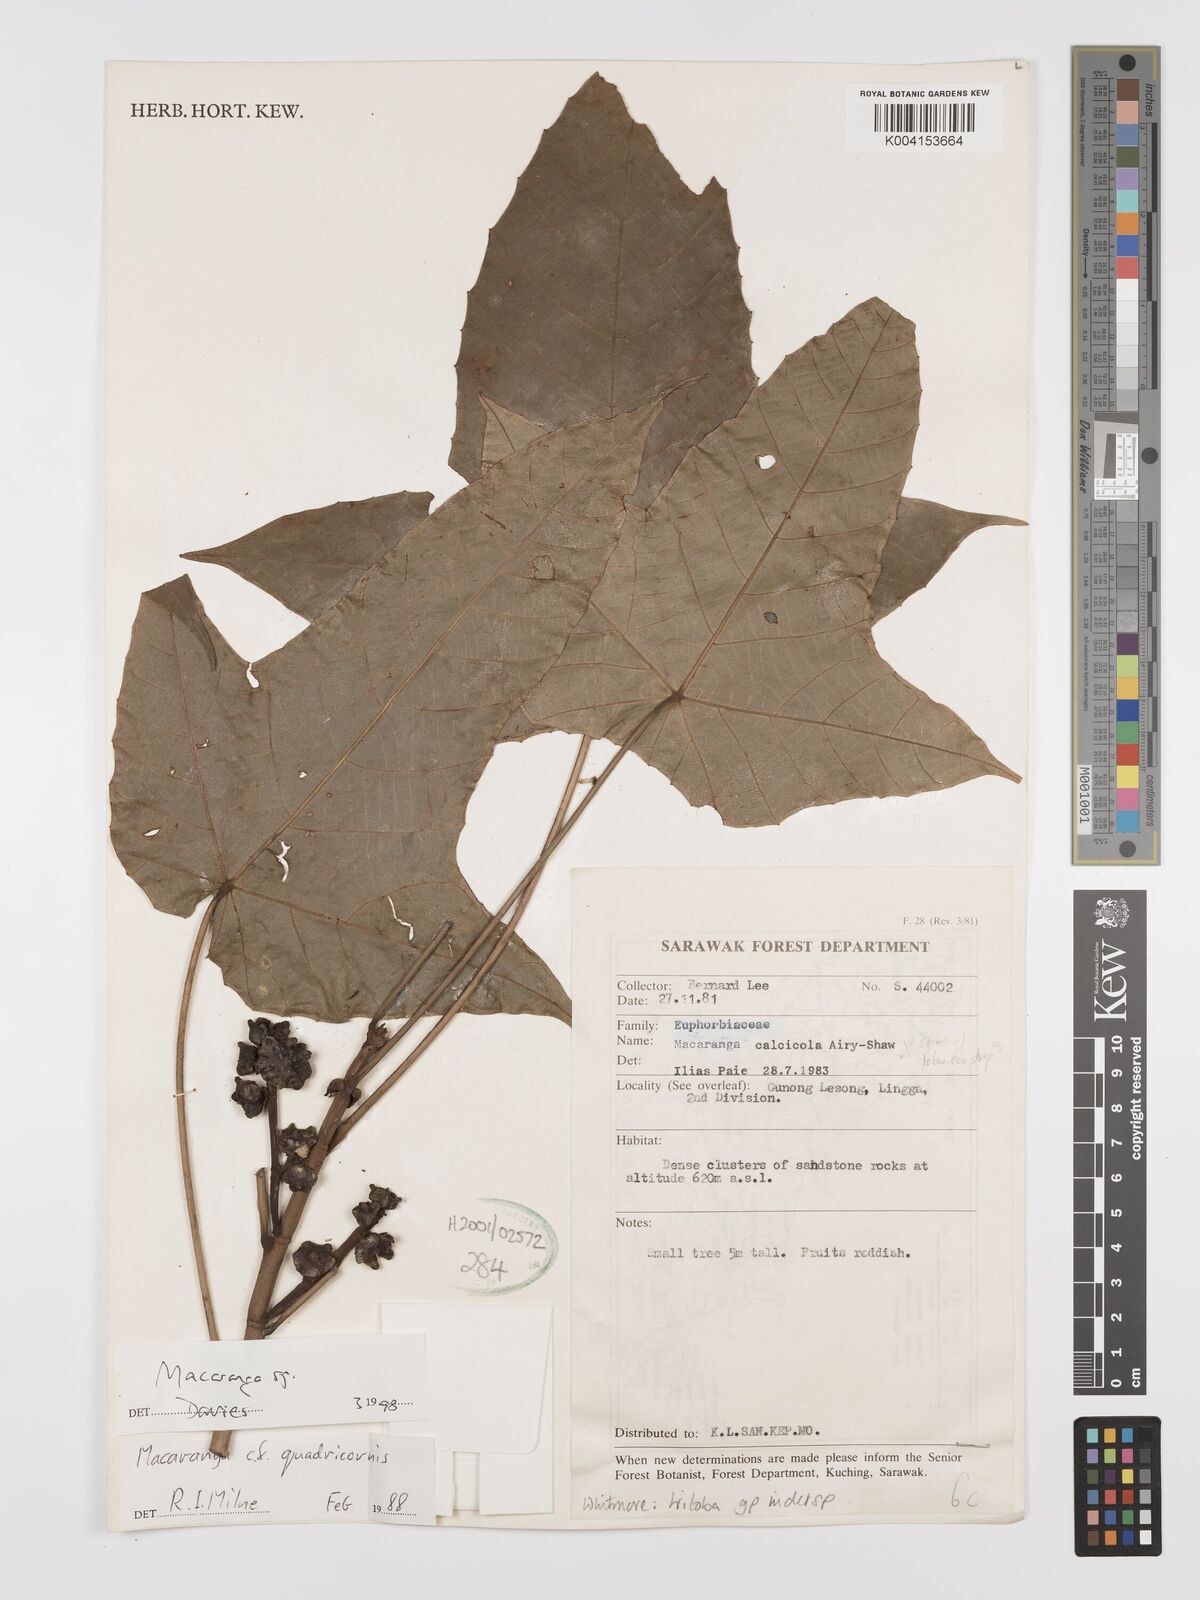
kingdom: Plantae
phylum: Tracheophyta
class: Magnoliopsida
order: Malpighiales
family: Euphorbiaceae
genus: Macaranga
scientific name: Macaranga triloba
